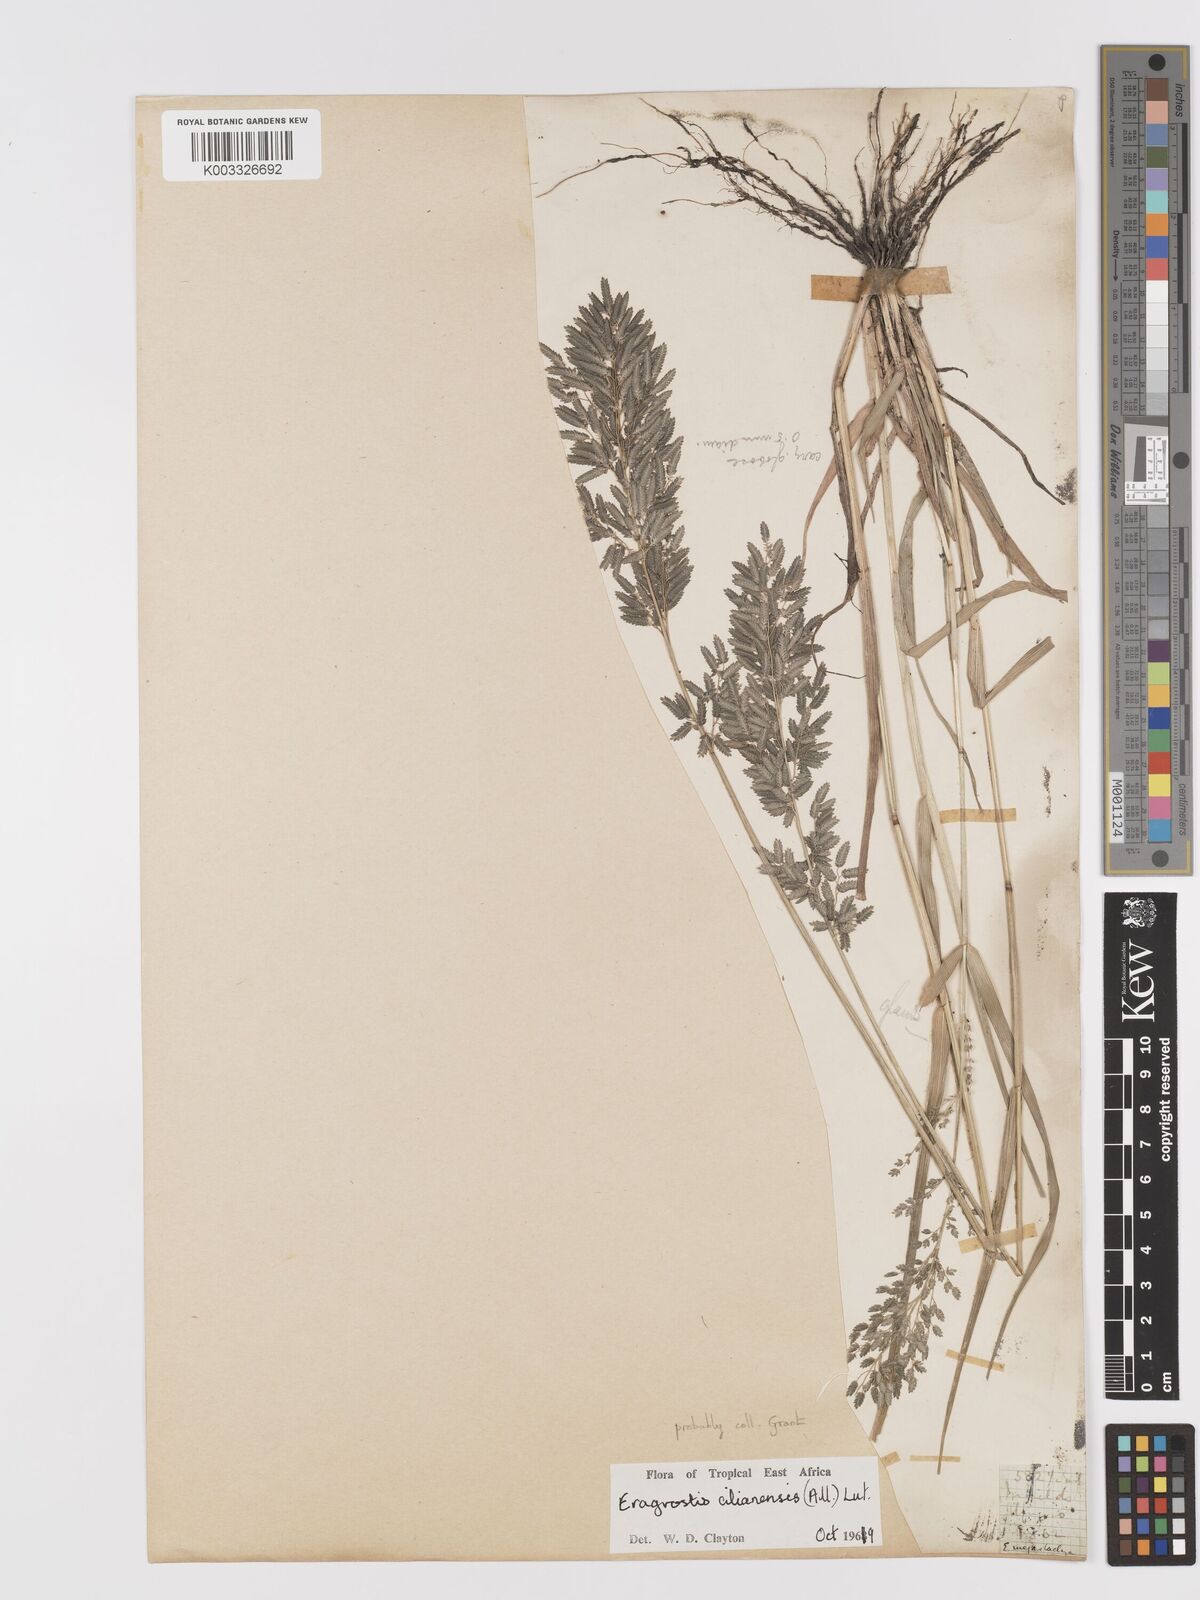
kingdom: Plantae
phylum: Tracheophyta
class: Liliopsida
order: Poales
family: Poaceae
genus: Eragrostis
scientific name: Eragrostis cilianensis
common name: Stinkgrass
